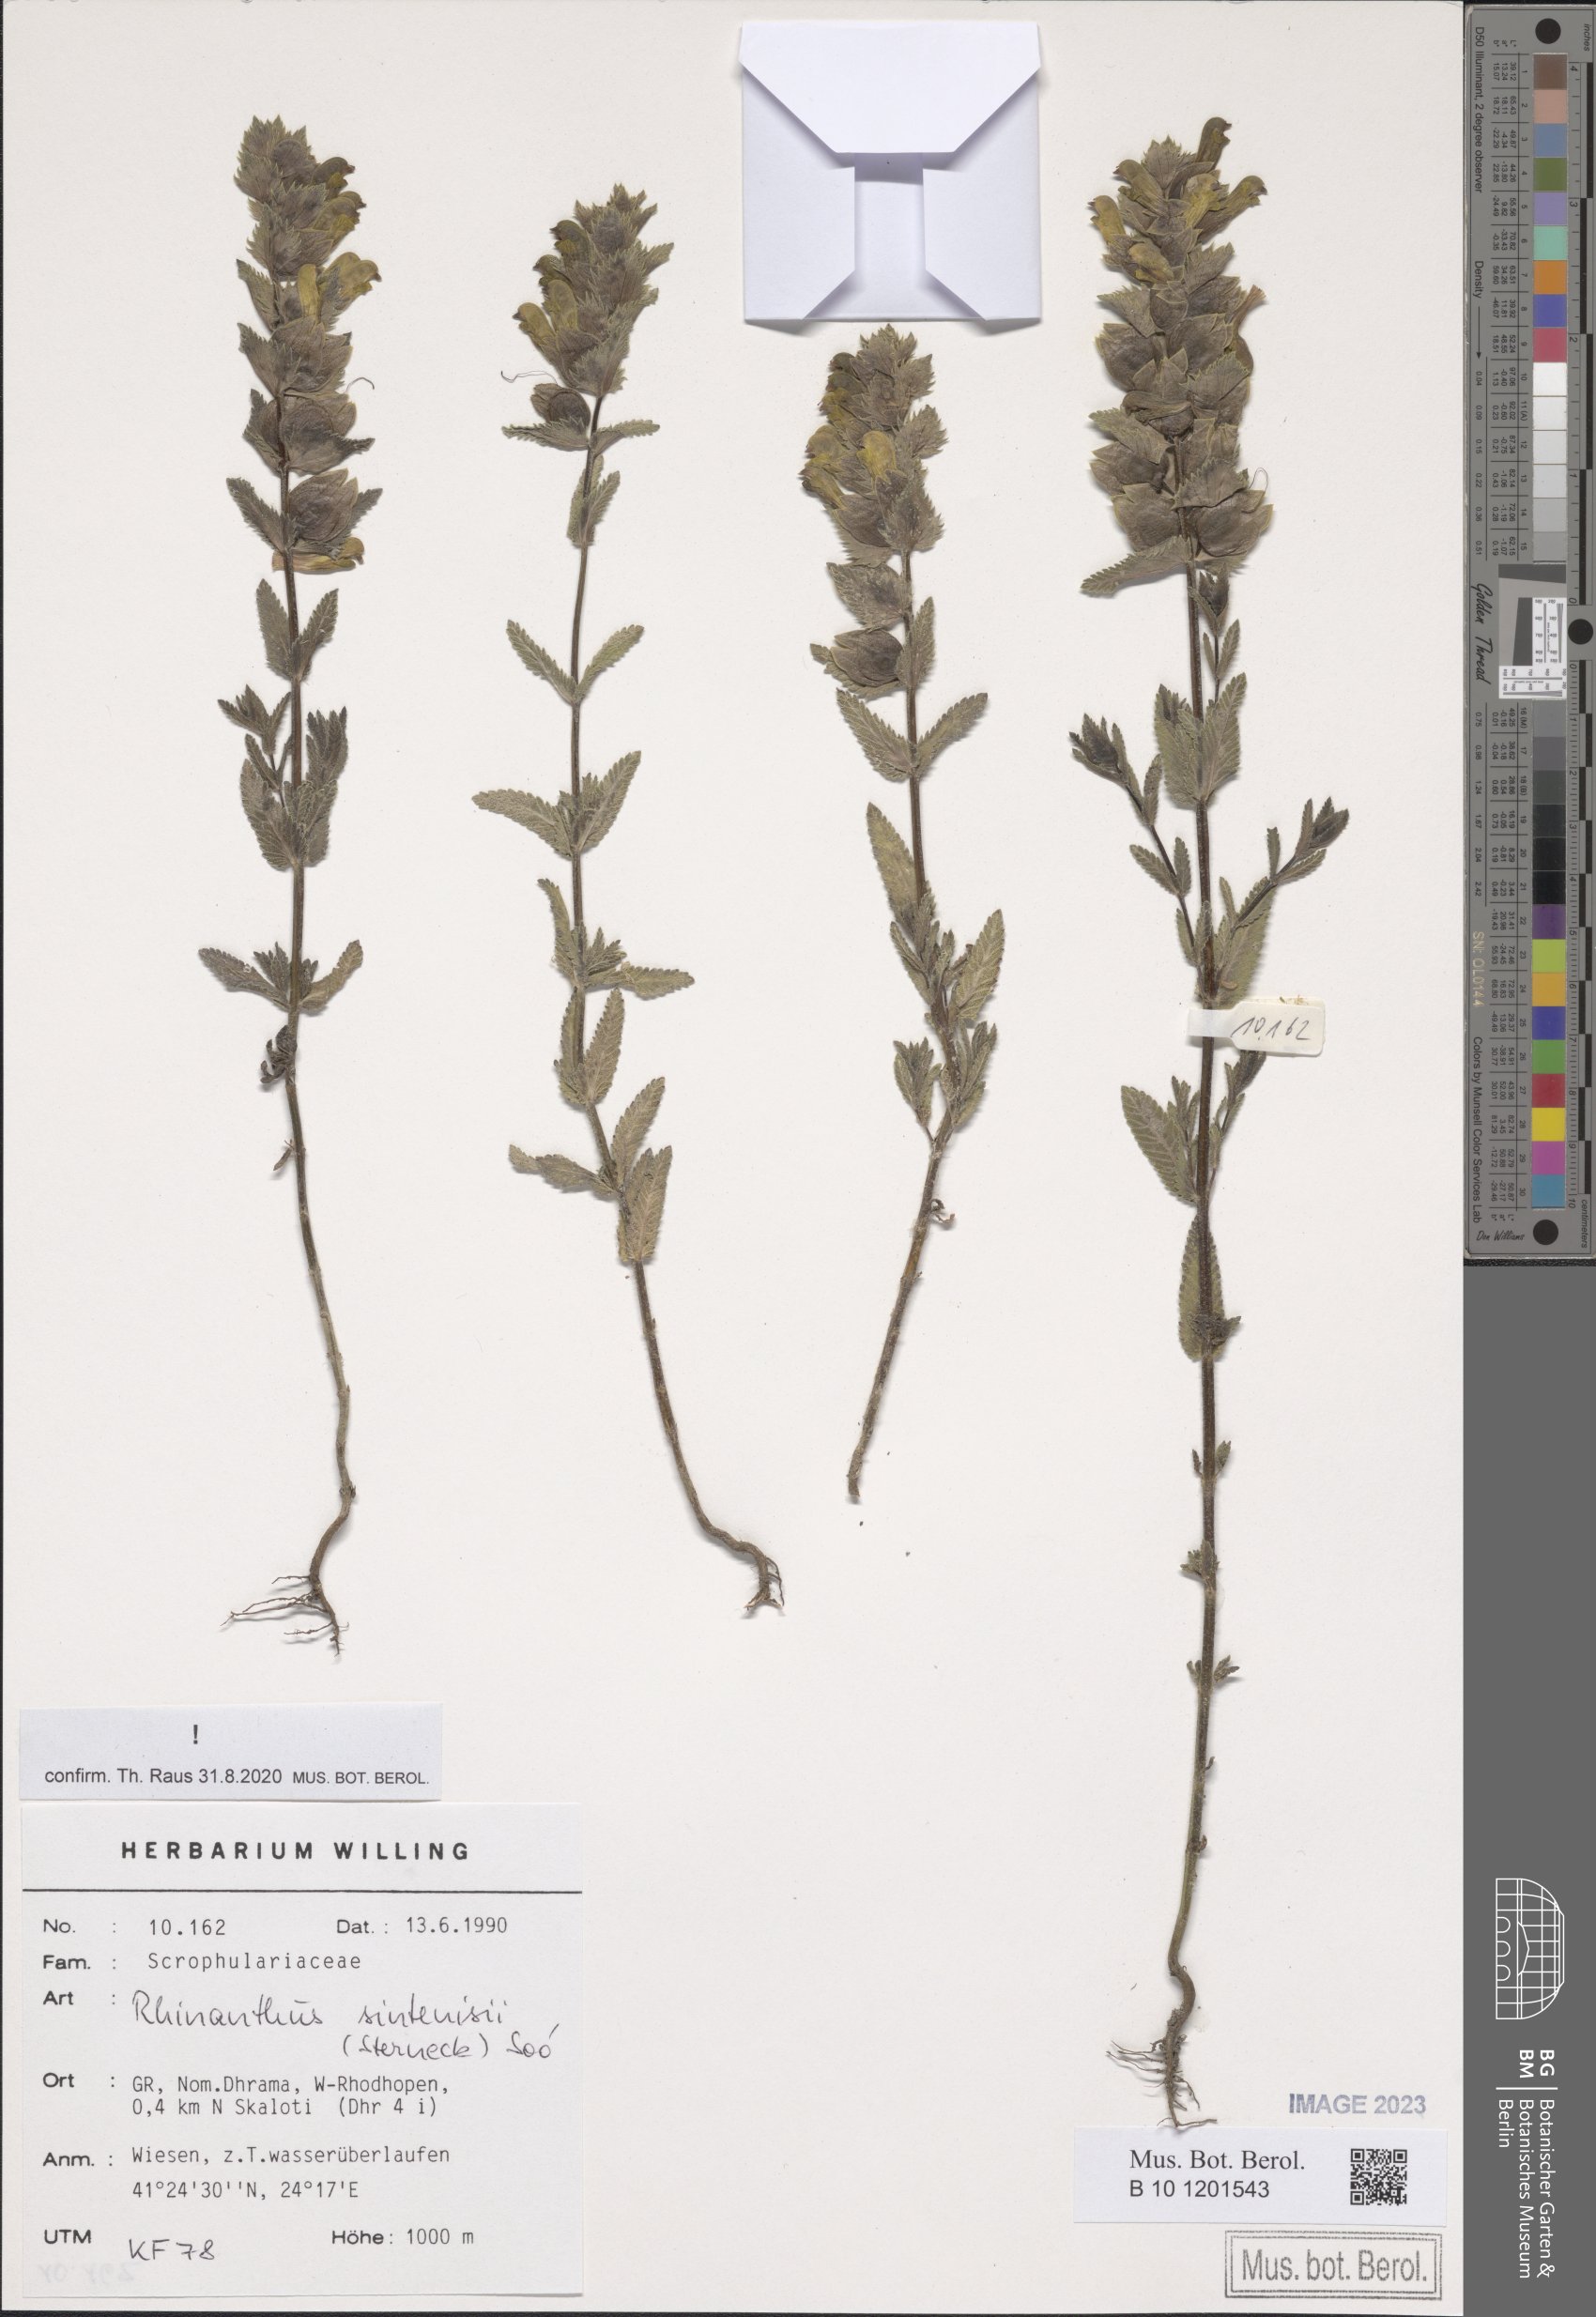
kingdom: Plantae
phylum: Tracheophyta
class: Magnoliopsida
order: Lamiales
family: Orobanchaceae
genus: Rhinanthus
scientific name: Rhinanthus sintenisii
